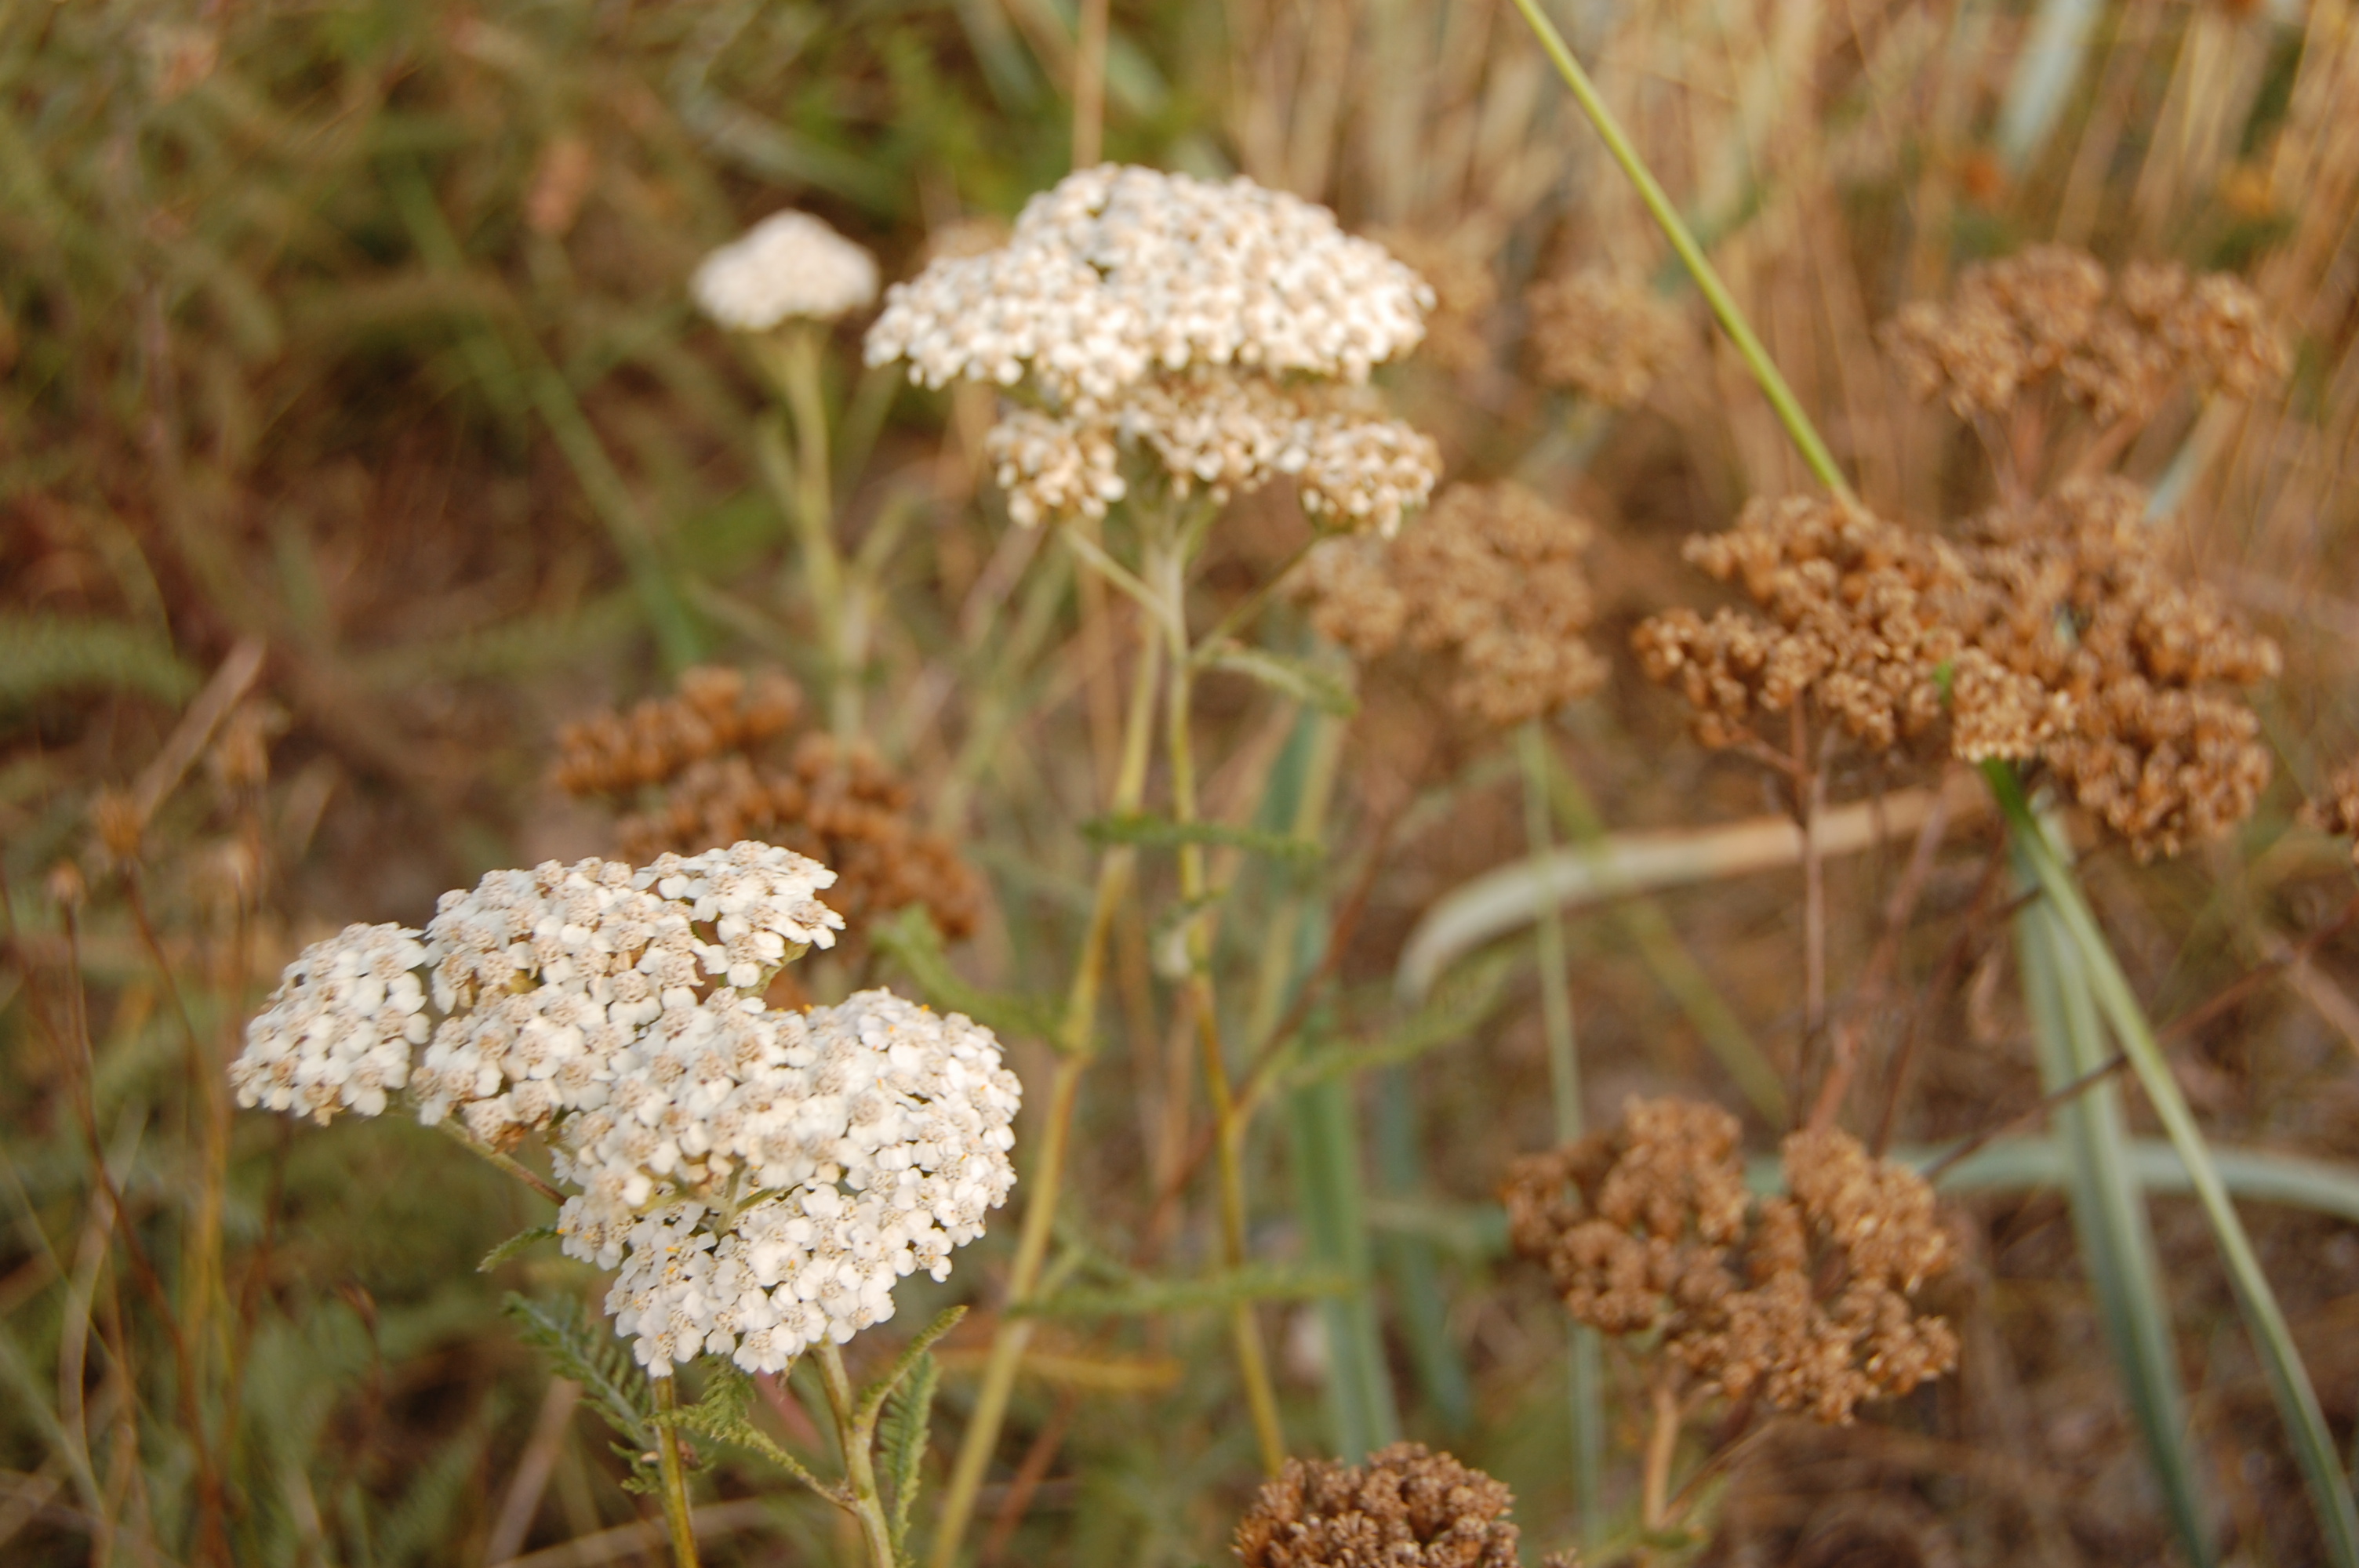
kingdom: Plantae
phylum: Tracheophyta
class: Magnoliopsida
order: Asterales
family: Asteraceae
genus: Achillea
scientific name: Achillea millefolium
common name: Yarrow
